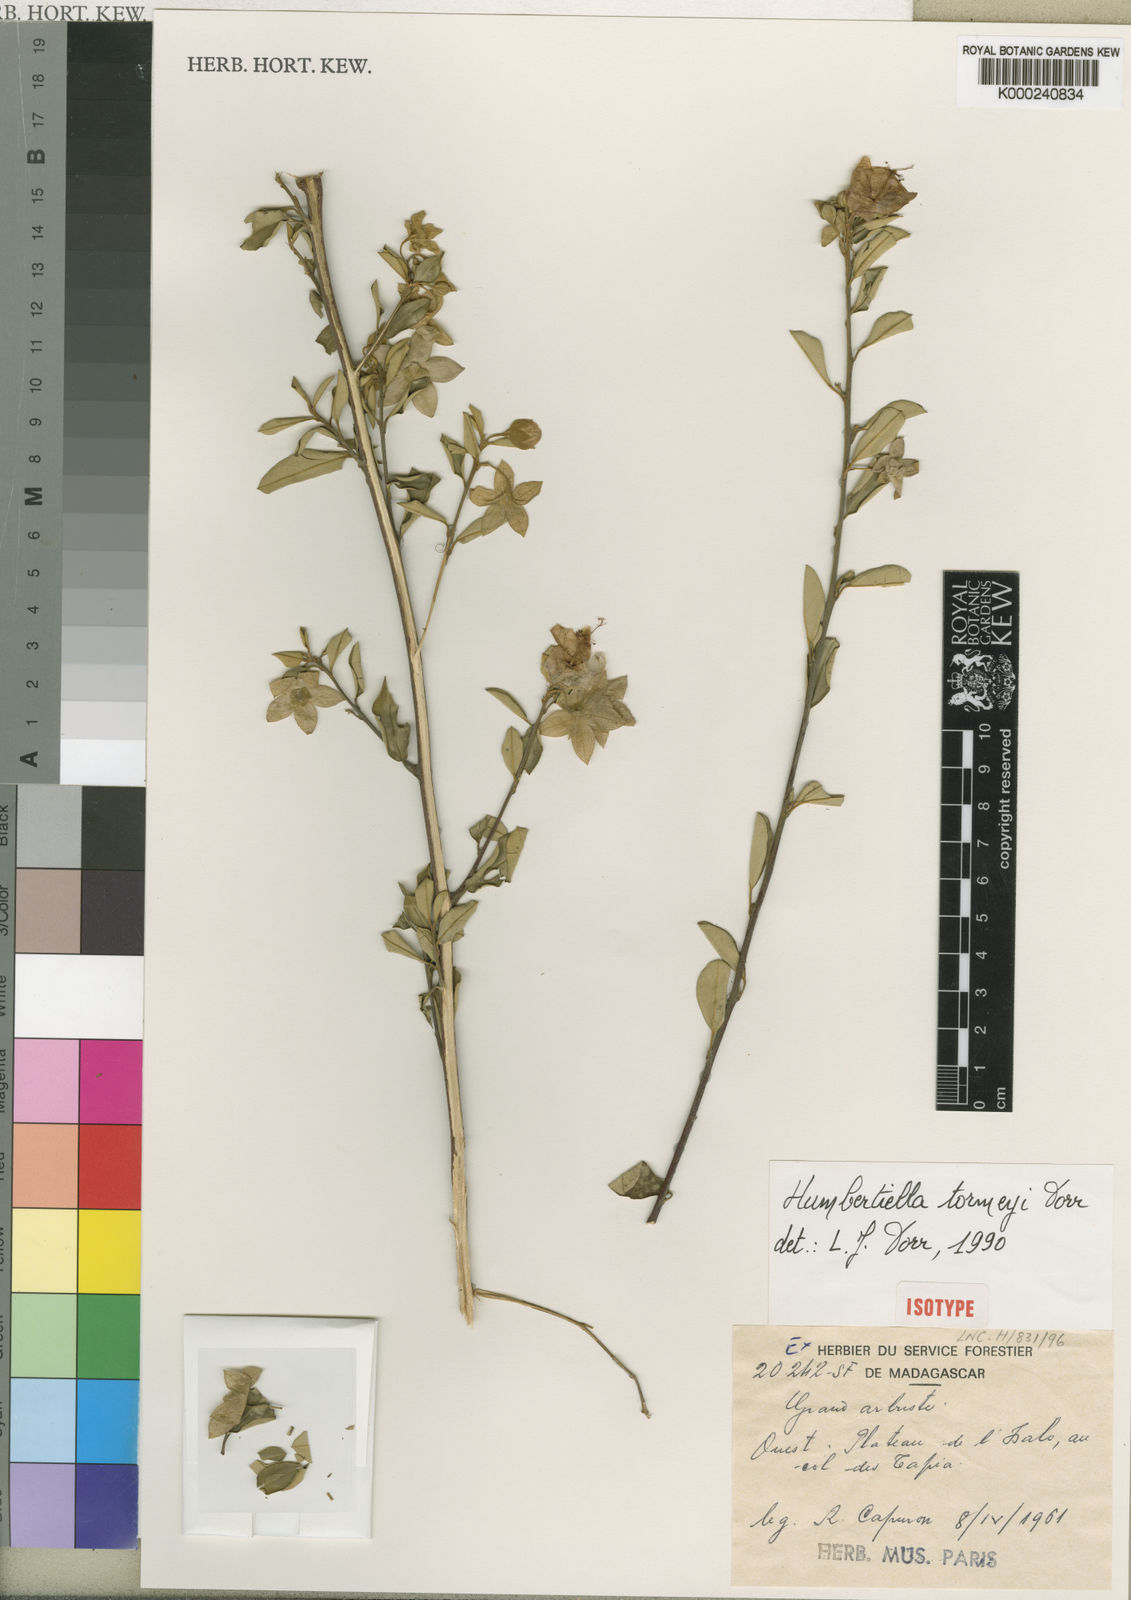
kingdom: Plantae
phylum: Tracheophyta
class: Magnoliopsida
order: Malvales
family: Malvaceae
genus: Humbertiella
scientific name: Humbertiella tormeyae
